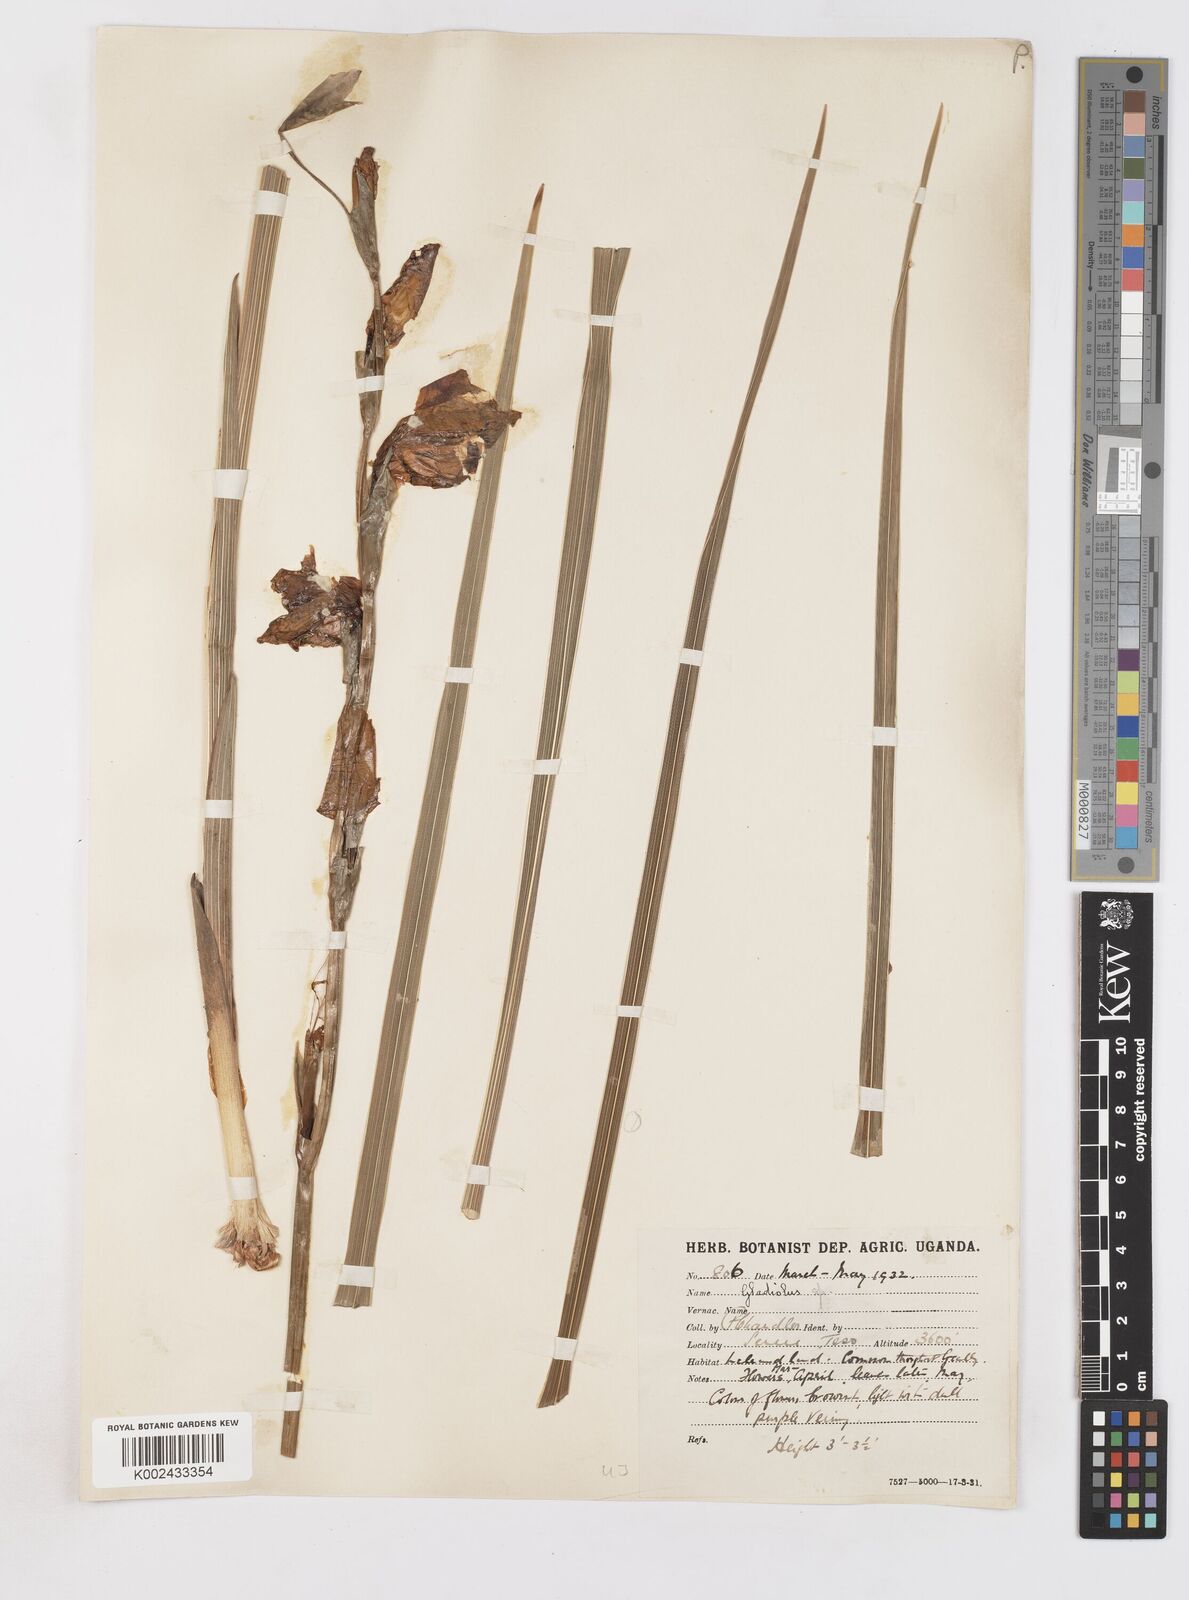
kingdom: Plantae
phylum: Tracheophyta
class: Liliopsida
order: Asparagales
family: Iridaceae
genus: Gladiolus
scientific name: Gladiolus dalenii
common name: Cornflag
